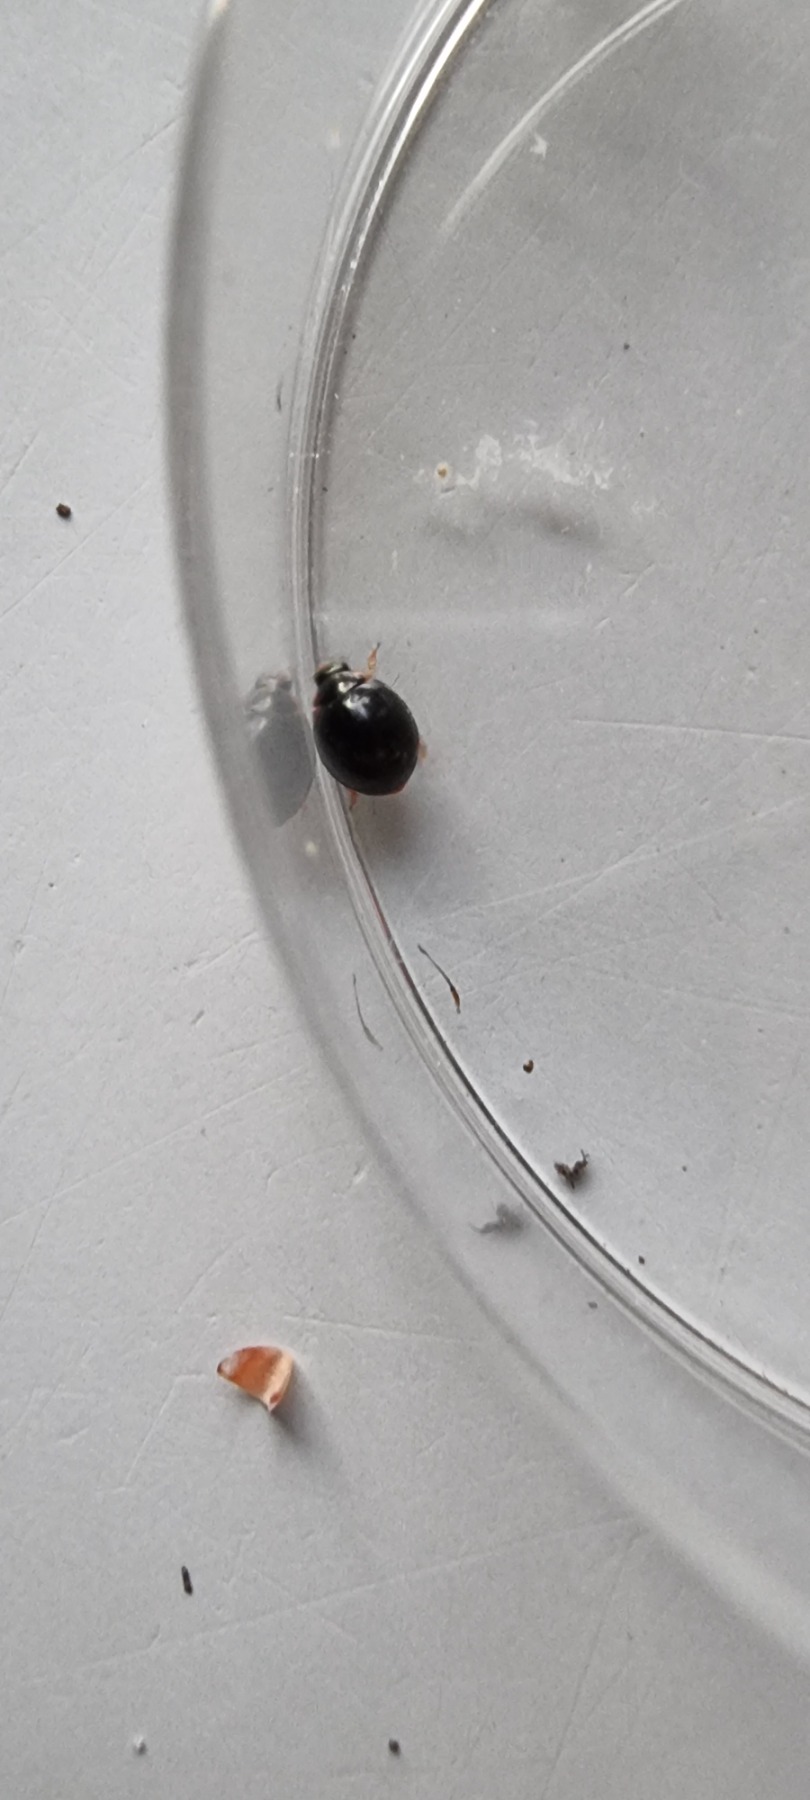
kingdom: Animalia
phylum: Arthropoda
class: Insecta
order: Coleoptera
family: Coccinellidae
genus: Parexochomus
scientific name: Parexochomus nigromaculatus
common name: Mørk mariehøne
